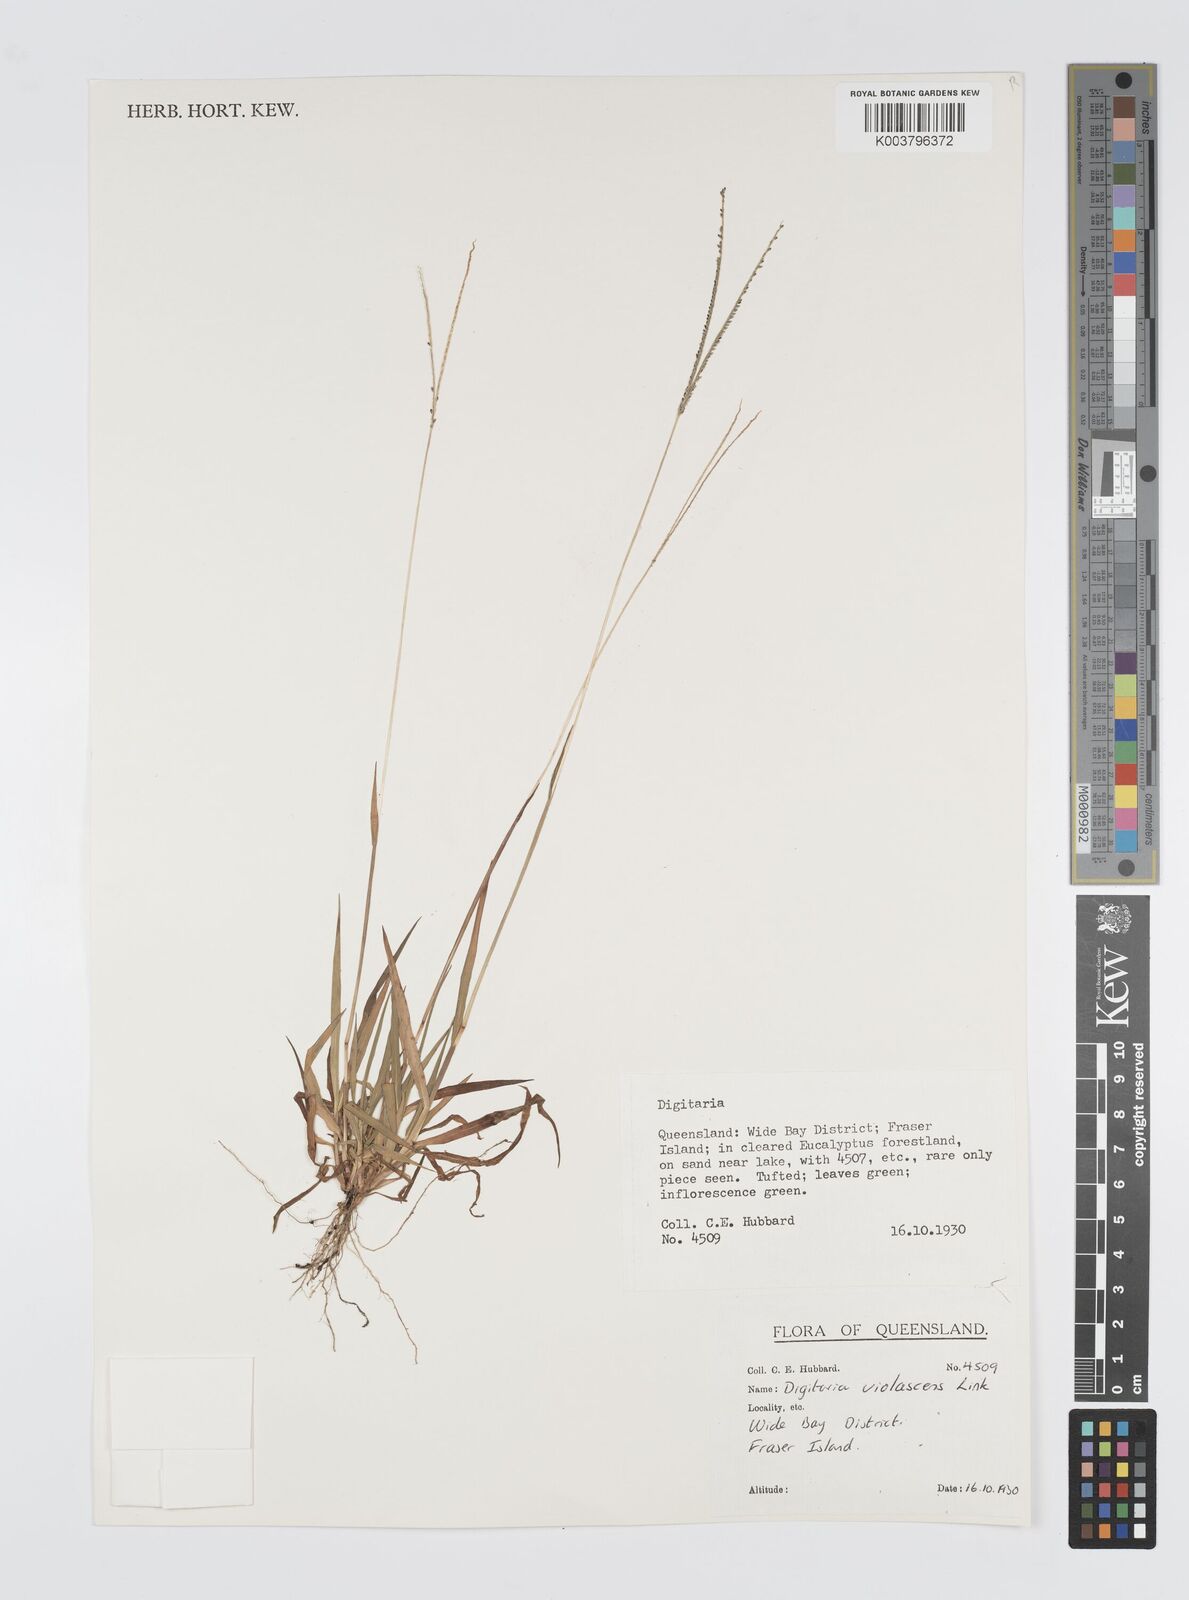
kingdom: Plantae
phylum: Tracheophyta
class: Liliopsida
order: Poales
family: Poaceae
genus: Digitaria
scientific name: Digitaria violascens
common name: Violet crabgrass
